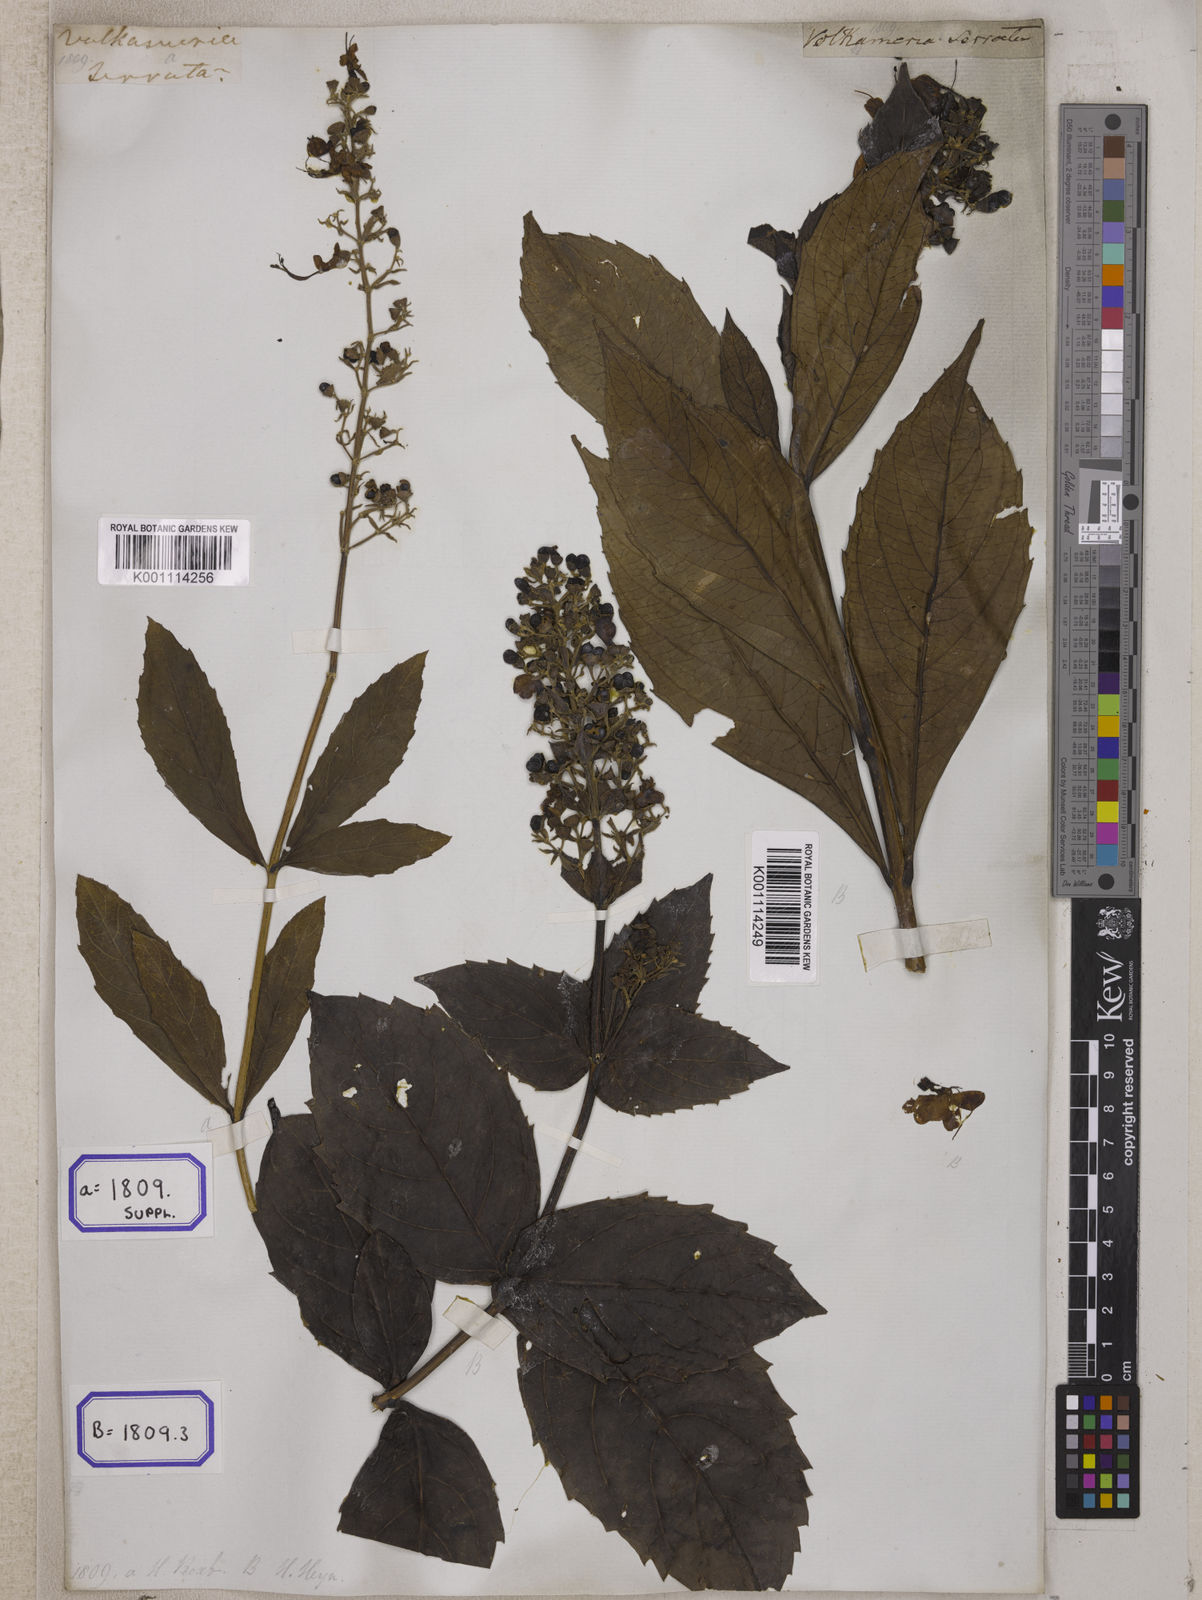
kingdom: Plantae
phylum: Tracheophyta
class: Magnoliopsida
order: Lamiales
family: Lamiaceae
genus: Clerodendrum
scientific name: Clerodendrum
